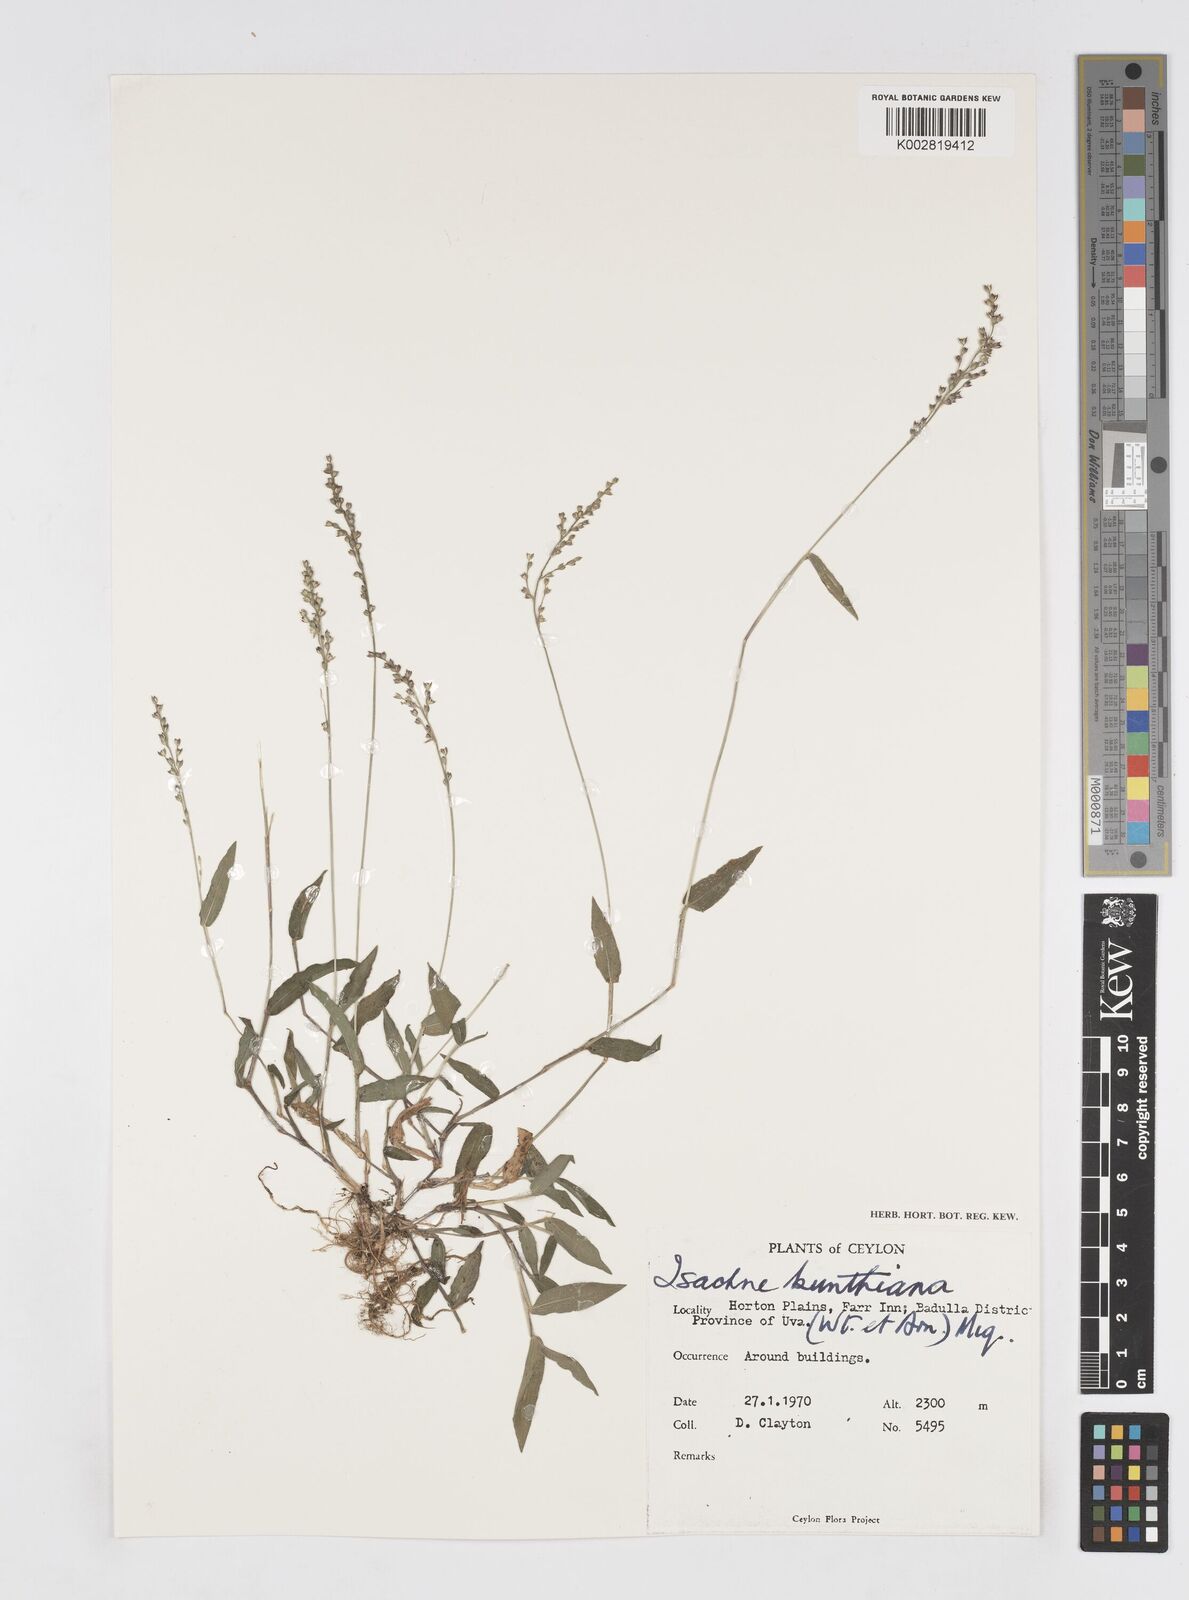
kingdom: Plantae
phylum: Tracheophyta
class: Liliopsida
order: Poales
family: Poaceae
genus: Isachne
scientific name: Isachne kunthiana
